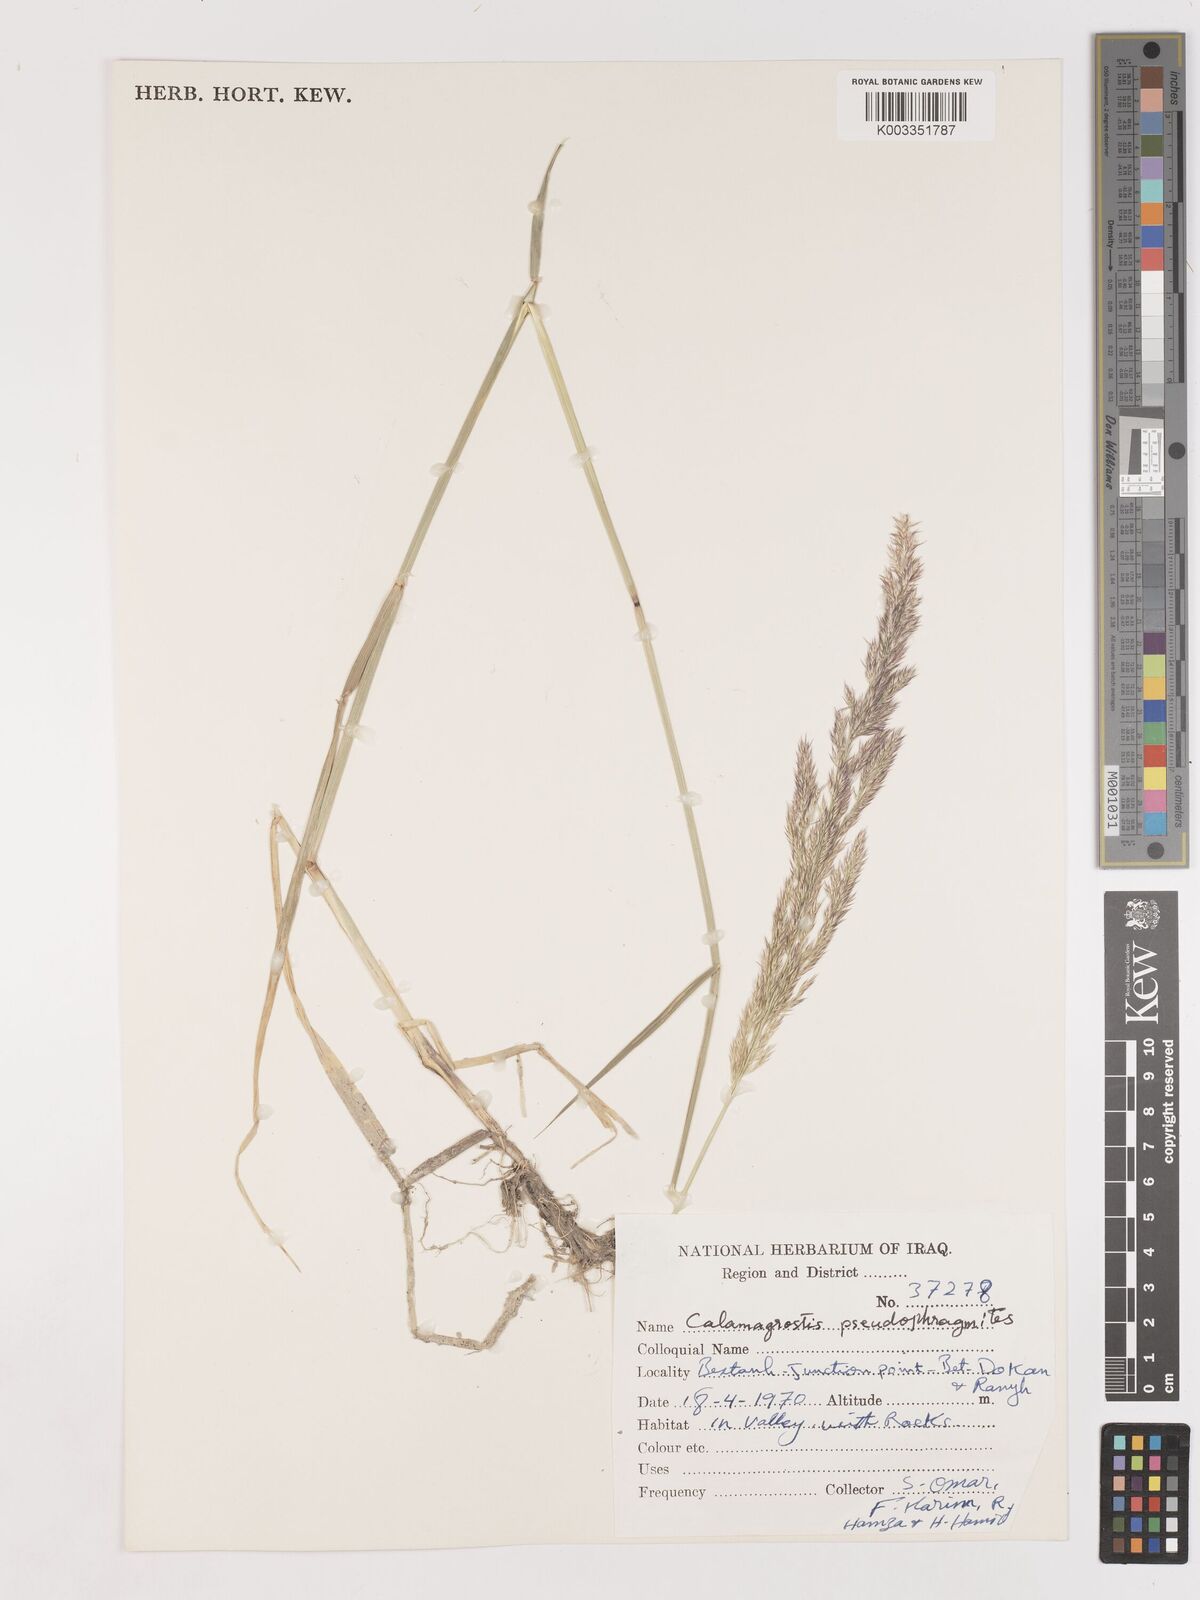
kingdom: Plantae
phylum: Tracheophyta
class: Liliopsida
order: Poales
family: Poaceae
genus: Calamagrostis
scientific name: Calamagrostis pseudophragmites
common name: Coastal small-reed
